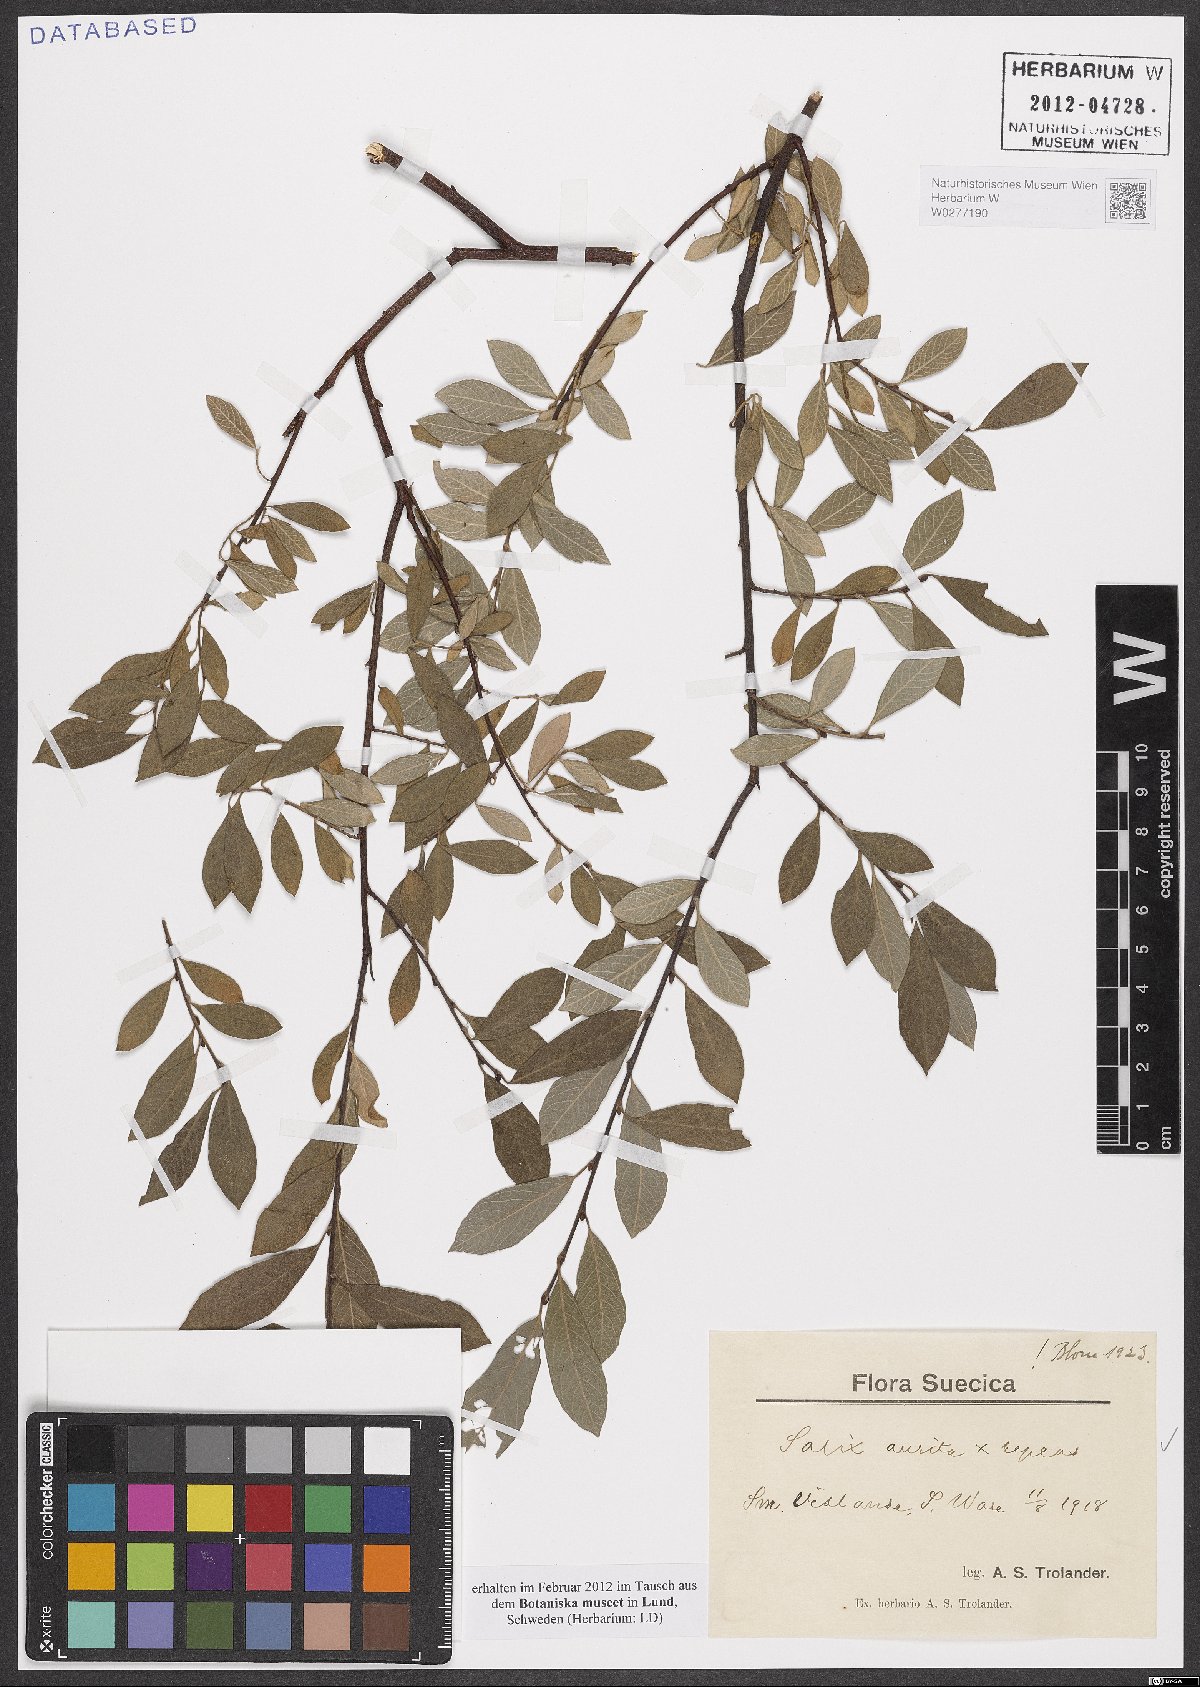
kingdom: Plantae
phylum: Tracheophyta
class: Magnoliopsida
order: Malpighiales
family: Salicaceae
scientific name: Salicaceae
